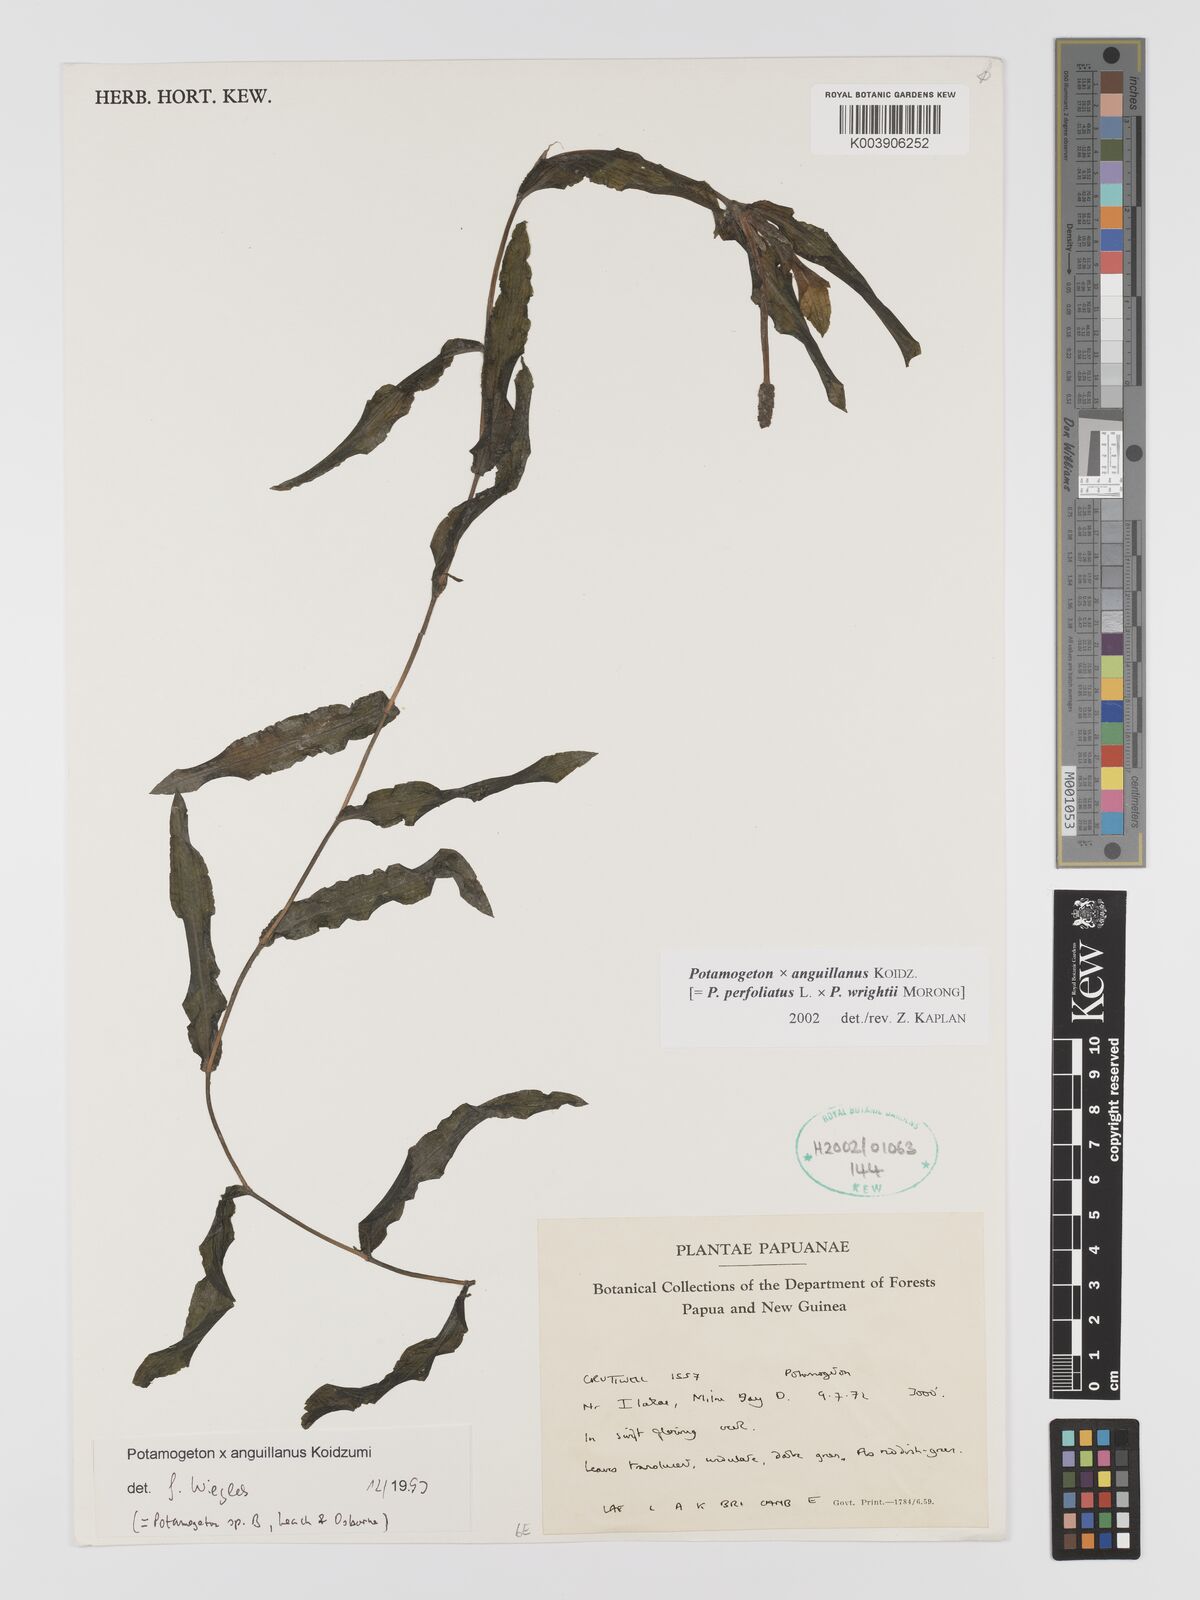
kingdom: Plantae
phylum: Tracheophyta
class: Liliopsida
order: Alismatales
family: Potamogetonaceae
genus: Potamogeton
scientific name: Potamogeton anguillanus
